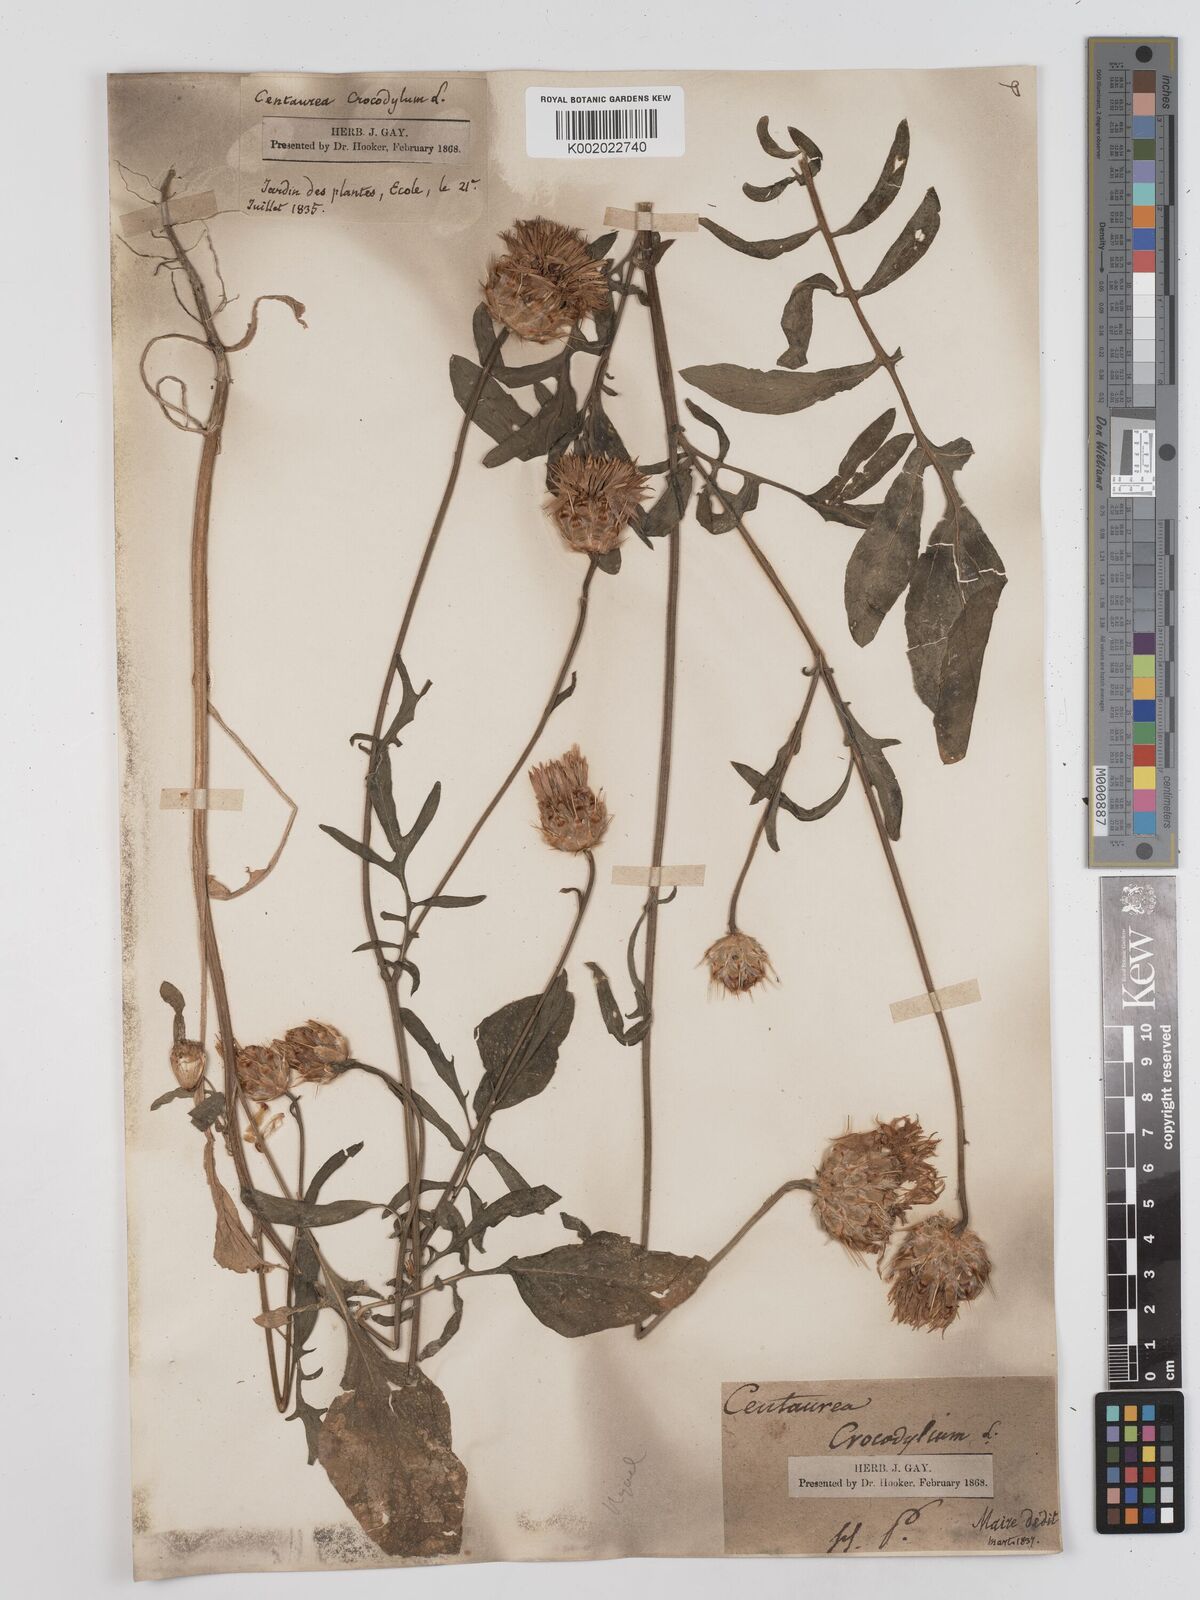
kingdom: Plantae
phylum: Tracheophyta
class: Magnoliopsida
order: Asterales
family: Asteraceae
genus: Crocodilium
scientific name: Crocodilium crocodylium
